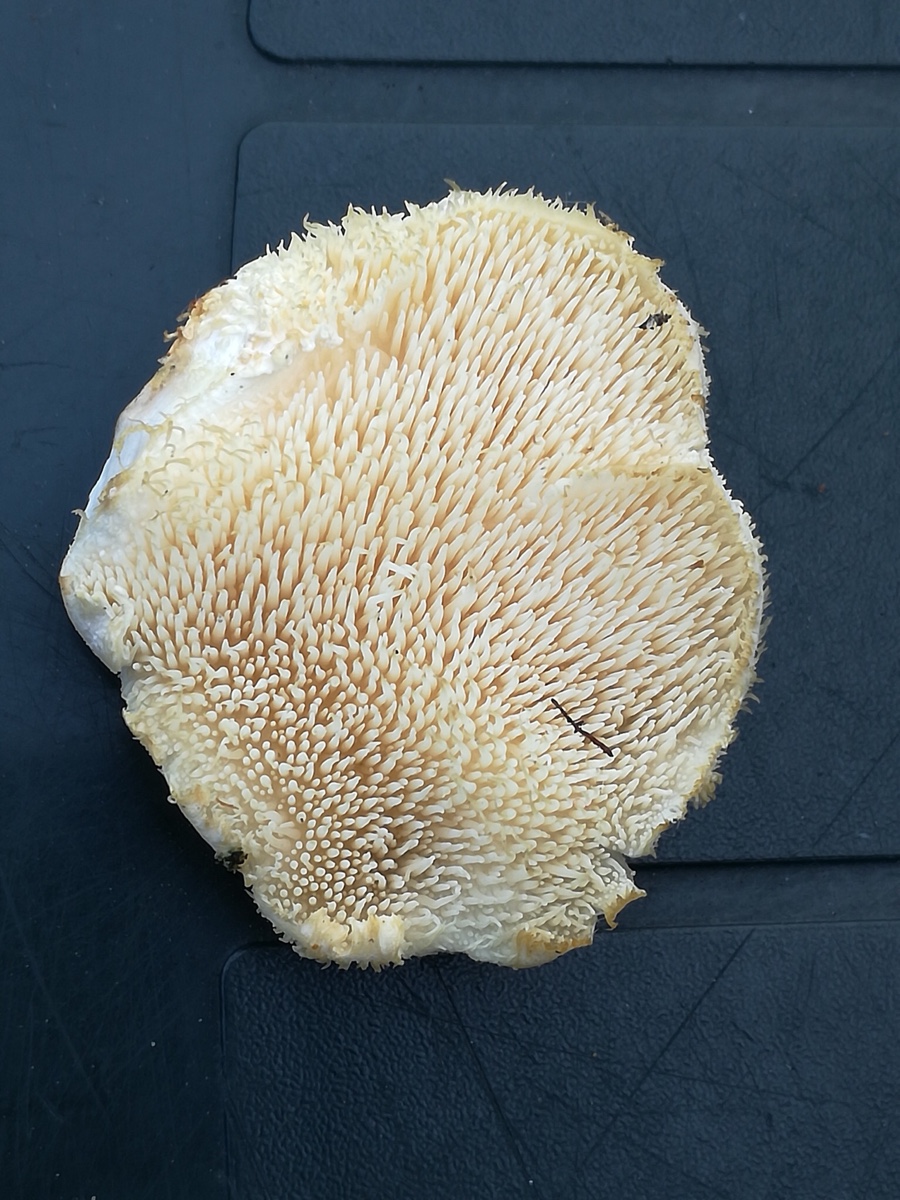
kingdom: Fungi
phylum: Basidiomycota
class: Agaricomycetes
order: Russulales
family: Hericiaceae
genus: Hericium
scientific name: Hericium cirrhatum
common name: børstepigsvamp
